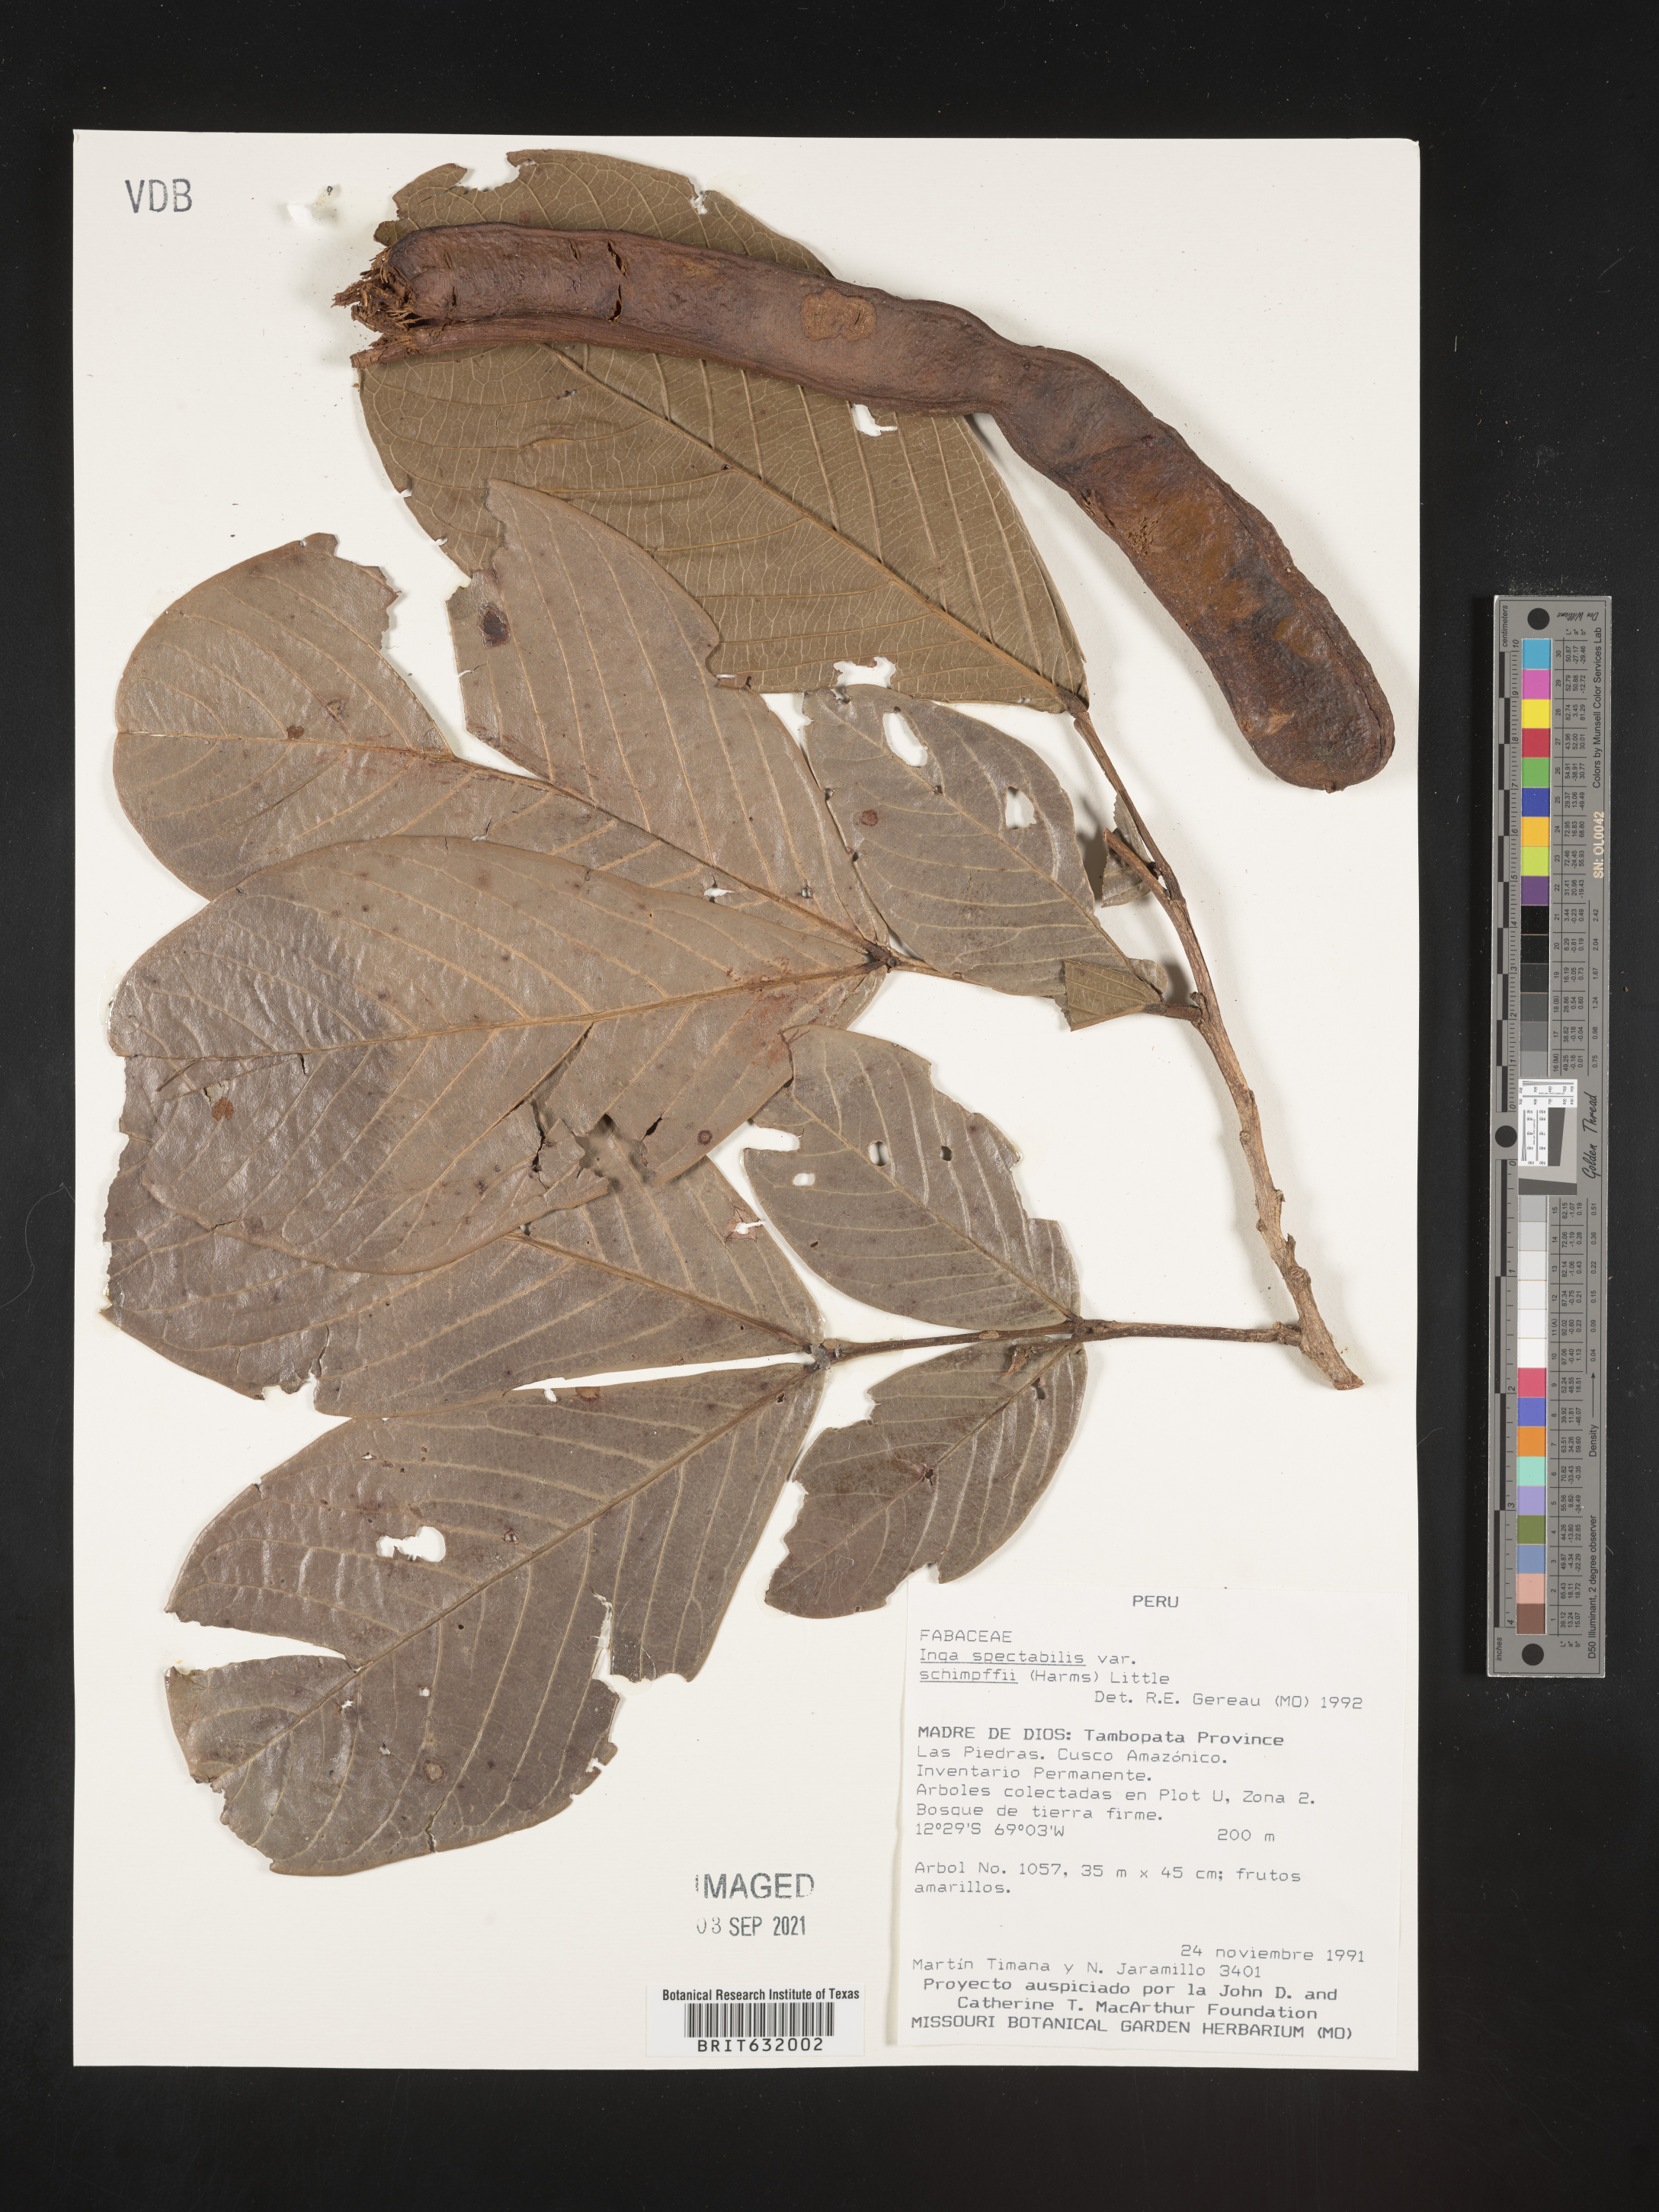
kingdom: Plantae
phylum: Tracheophyta
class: Magnoliopsida
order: Fabales
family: Fabaceae
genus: Inga
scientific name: Inga
